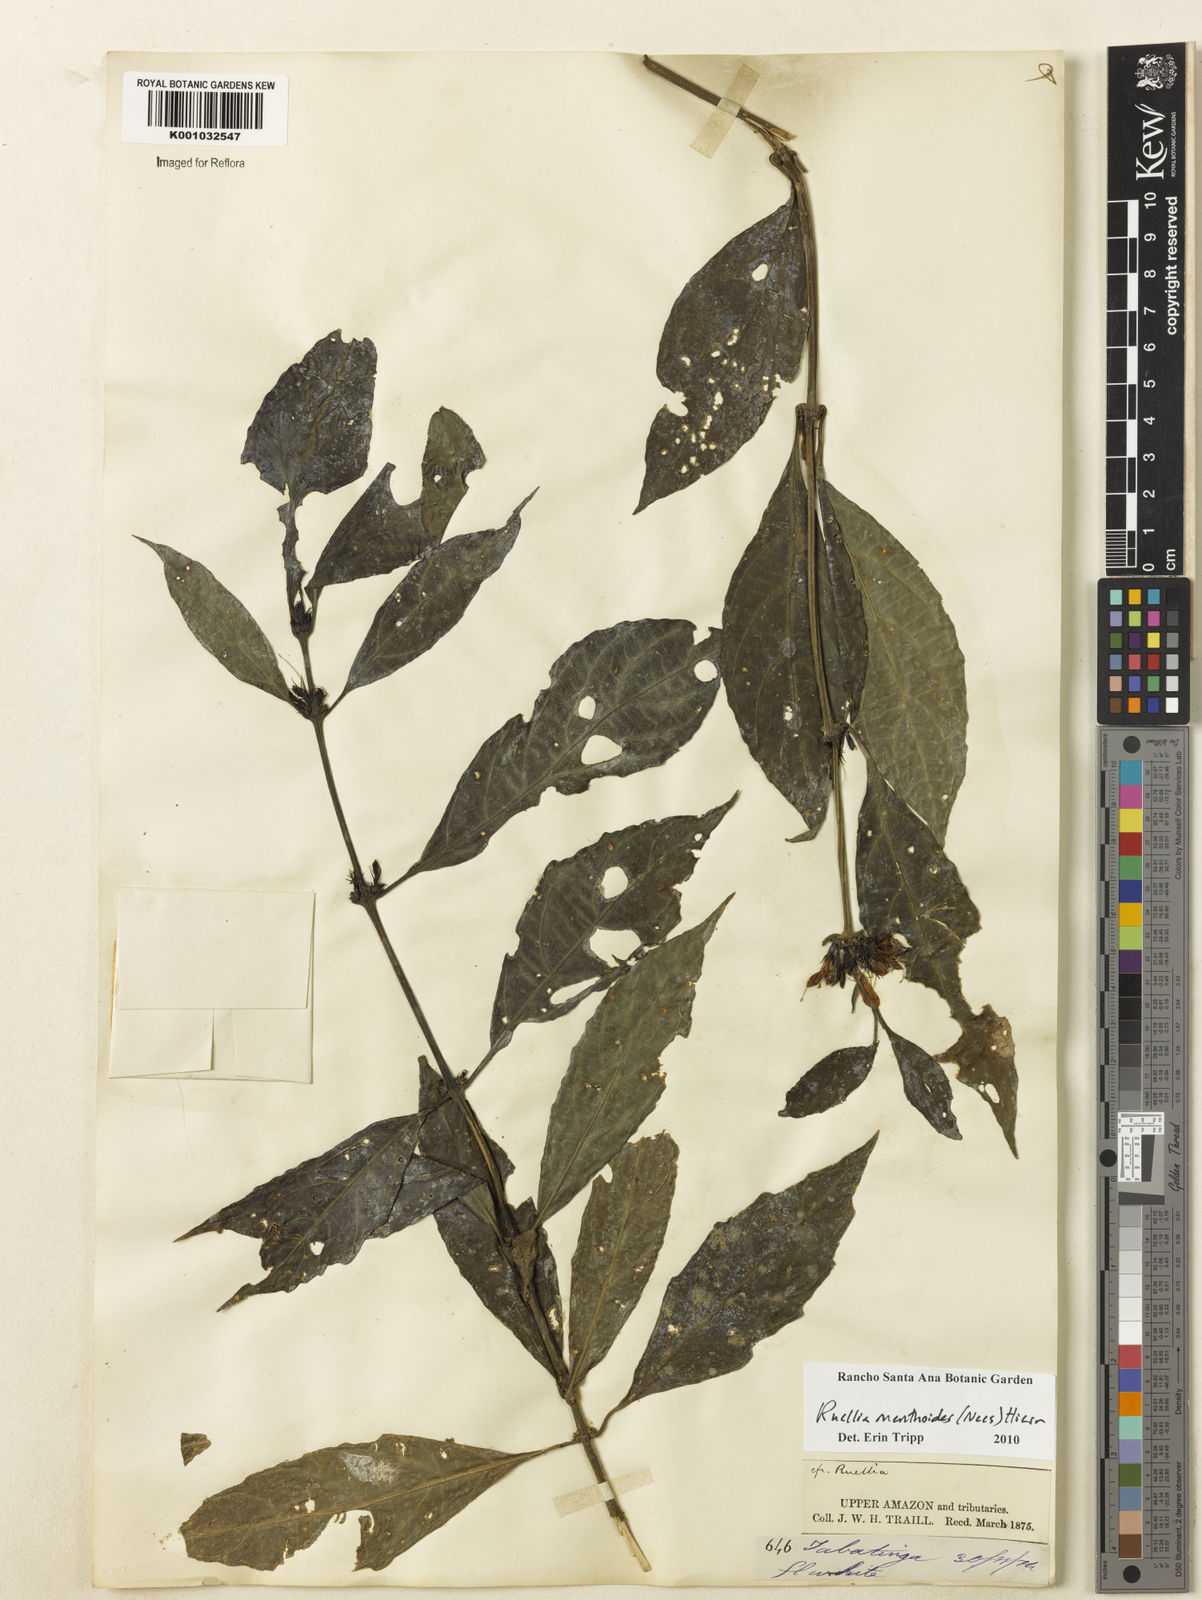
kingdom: Plantae
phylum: Tracheophyta
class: Magnoliopsida
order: Lamiales
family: Acanthaceae
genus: Ruellia
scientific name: Ruellia menthoides
